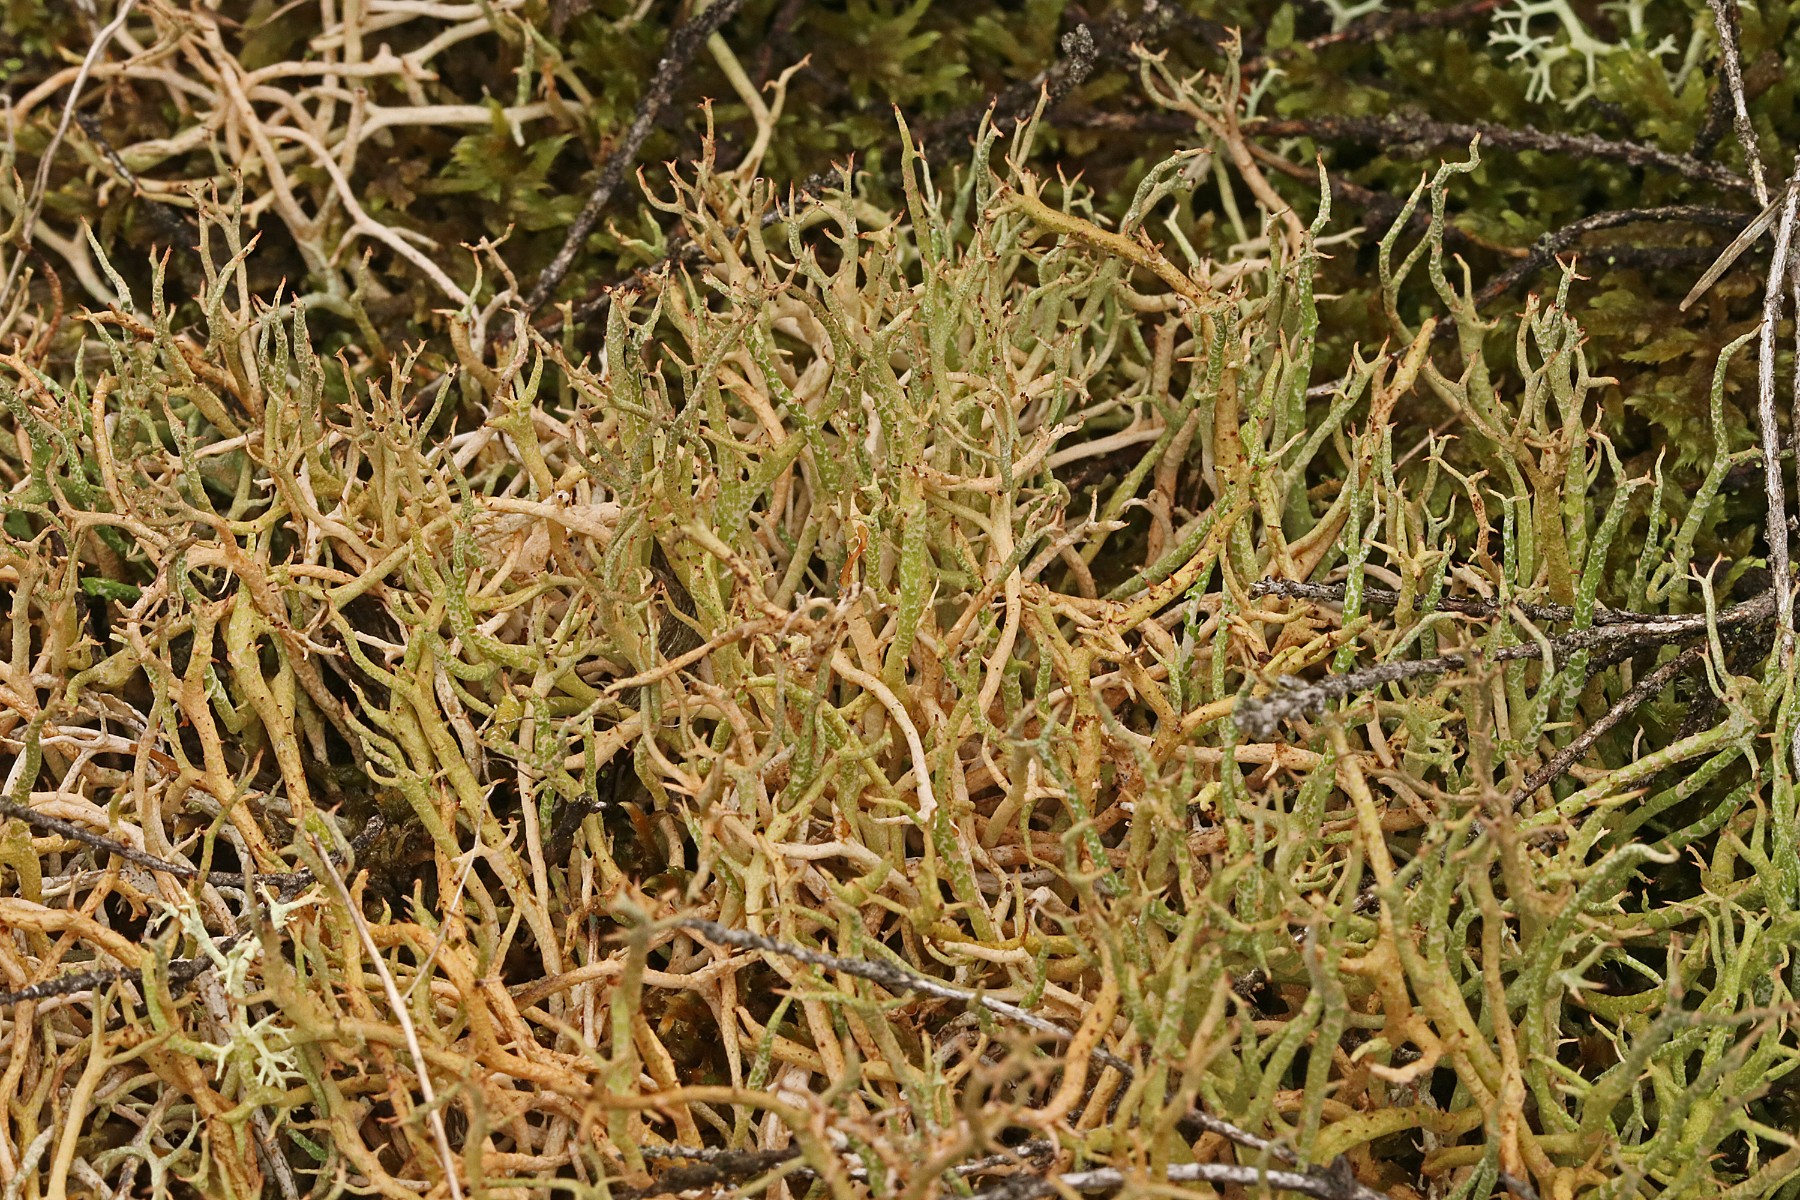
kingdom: Fungi
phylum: Ascomycota
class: Lecanoromycetes
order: Lecanorales
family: Cladoniaceae
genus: Cladonia
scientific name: Cladonia furcata
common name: kløftet bægerlav
